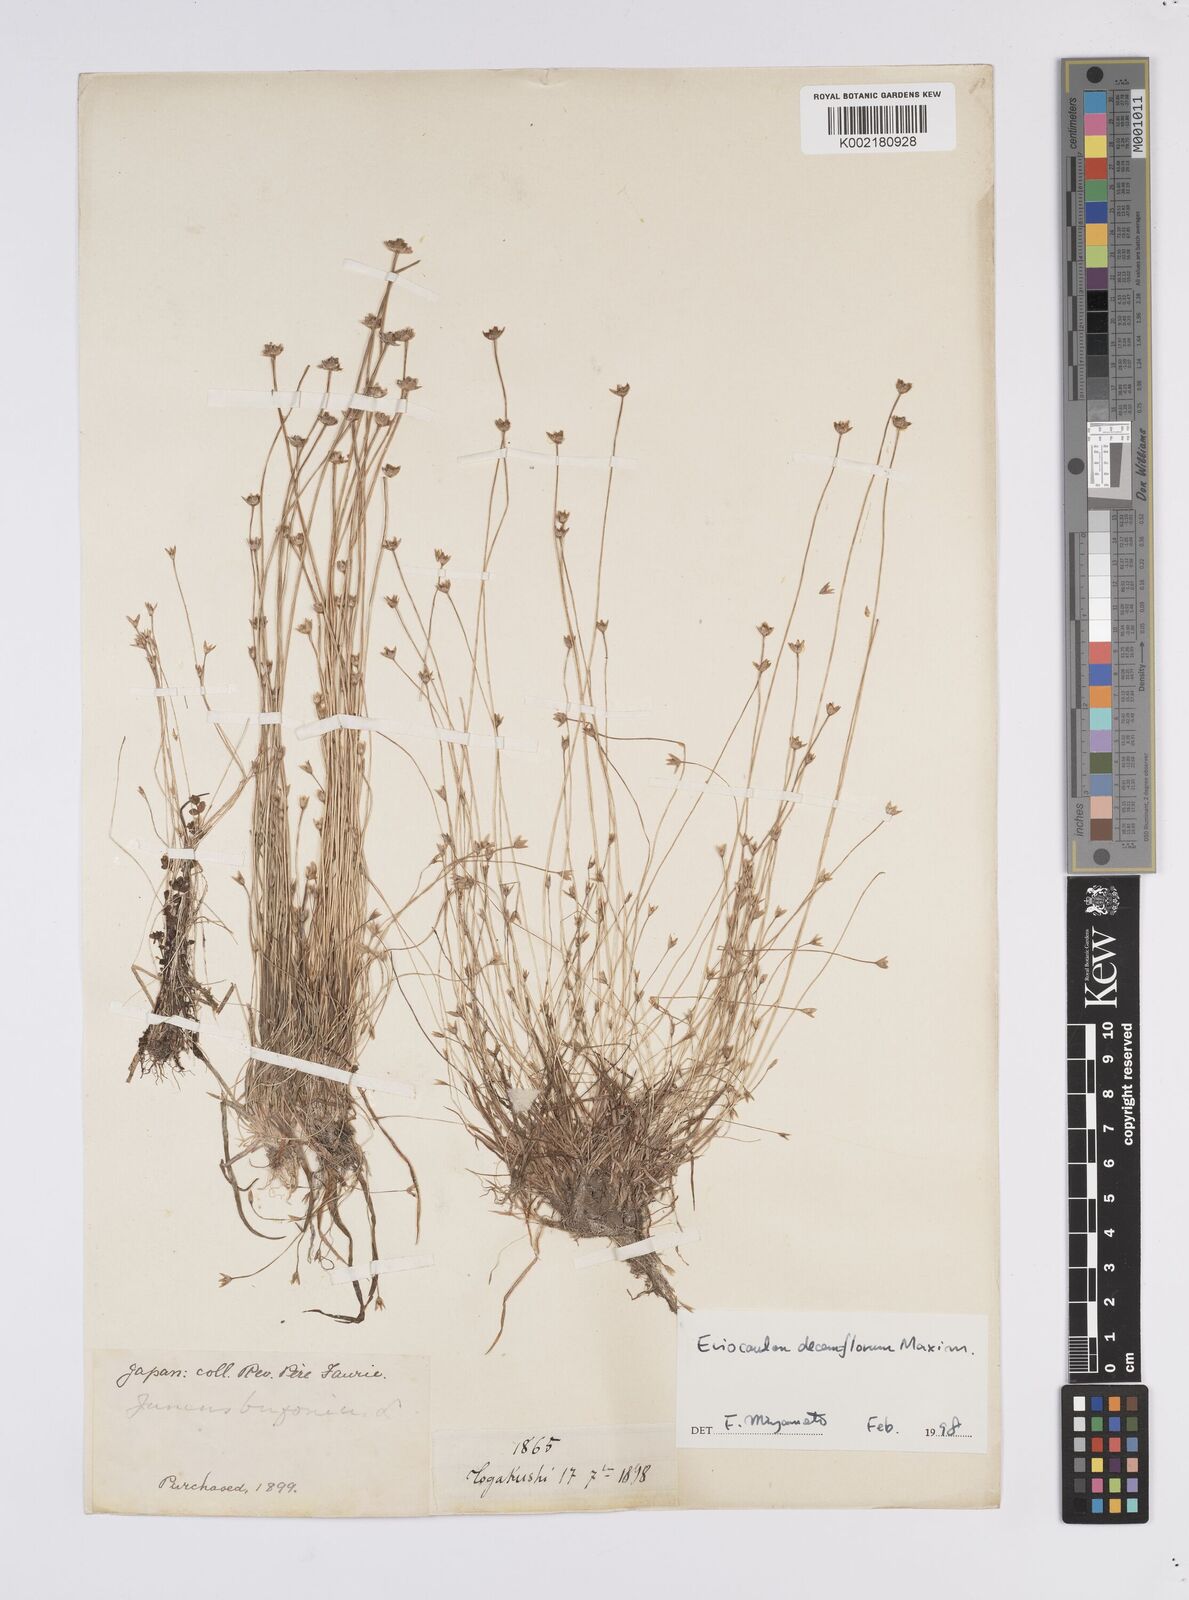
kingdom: Plantae
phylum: Tracheophyta
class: Liliopsida
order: Poales
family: Eriocaulaceae
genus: Eriocaulon
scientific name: Eriocaulon decemflorum
